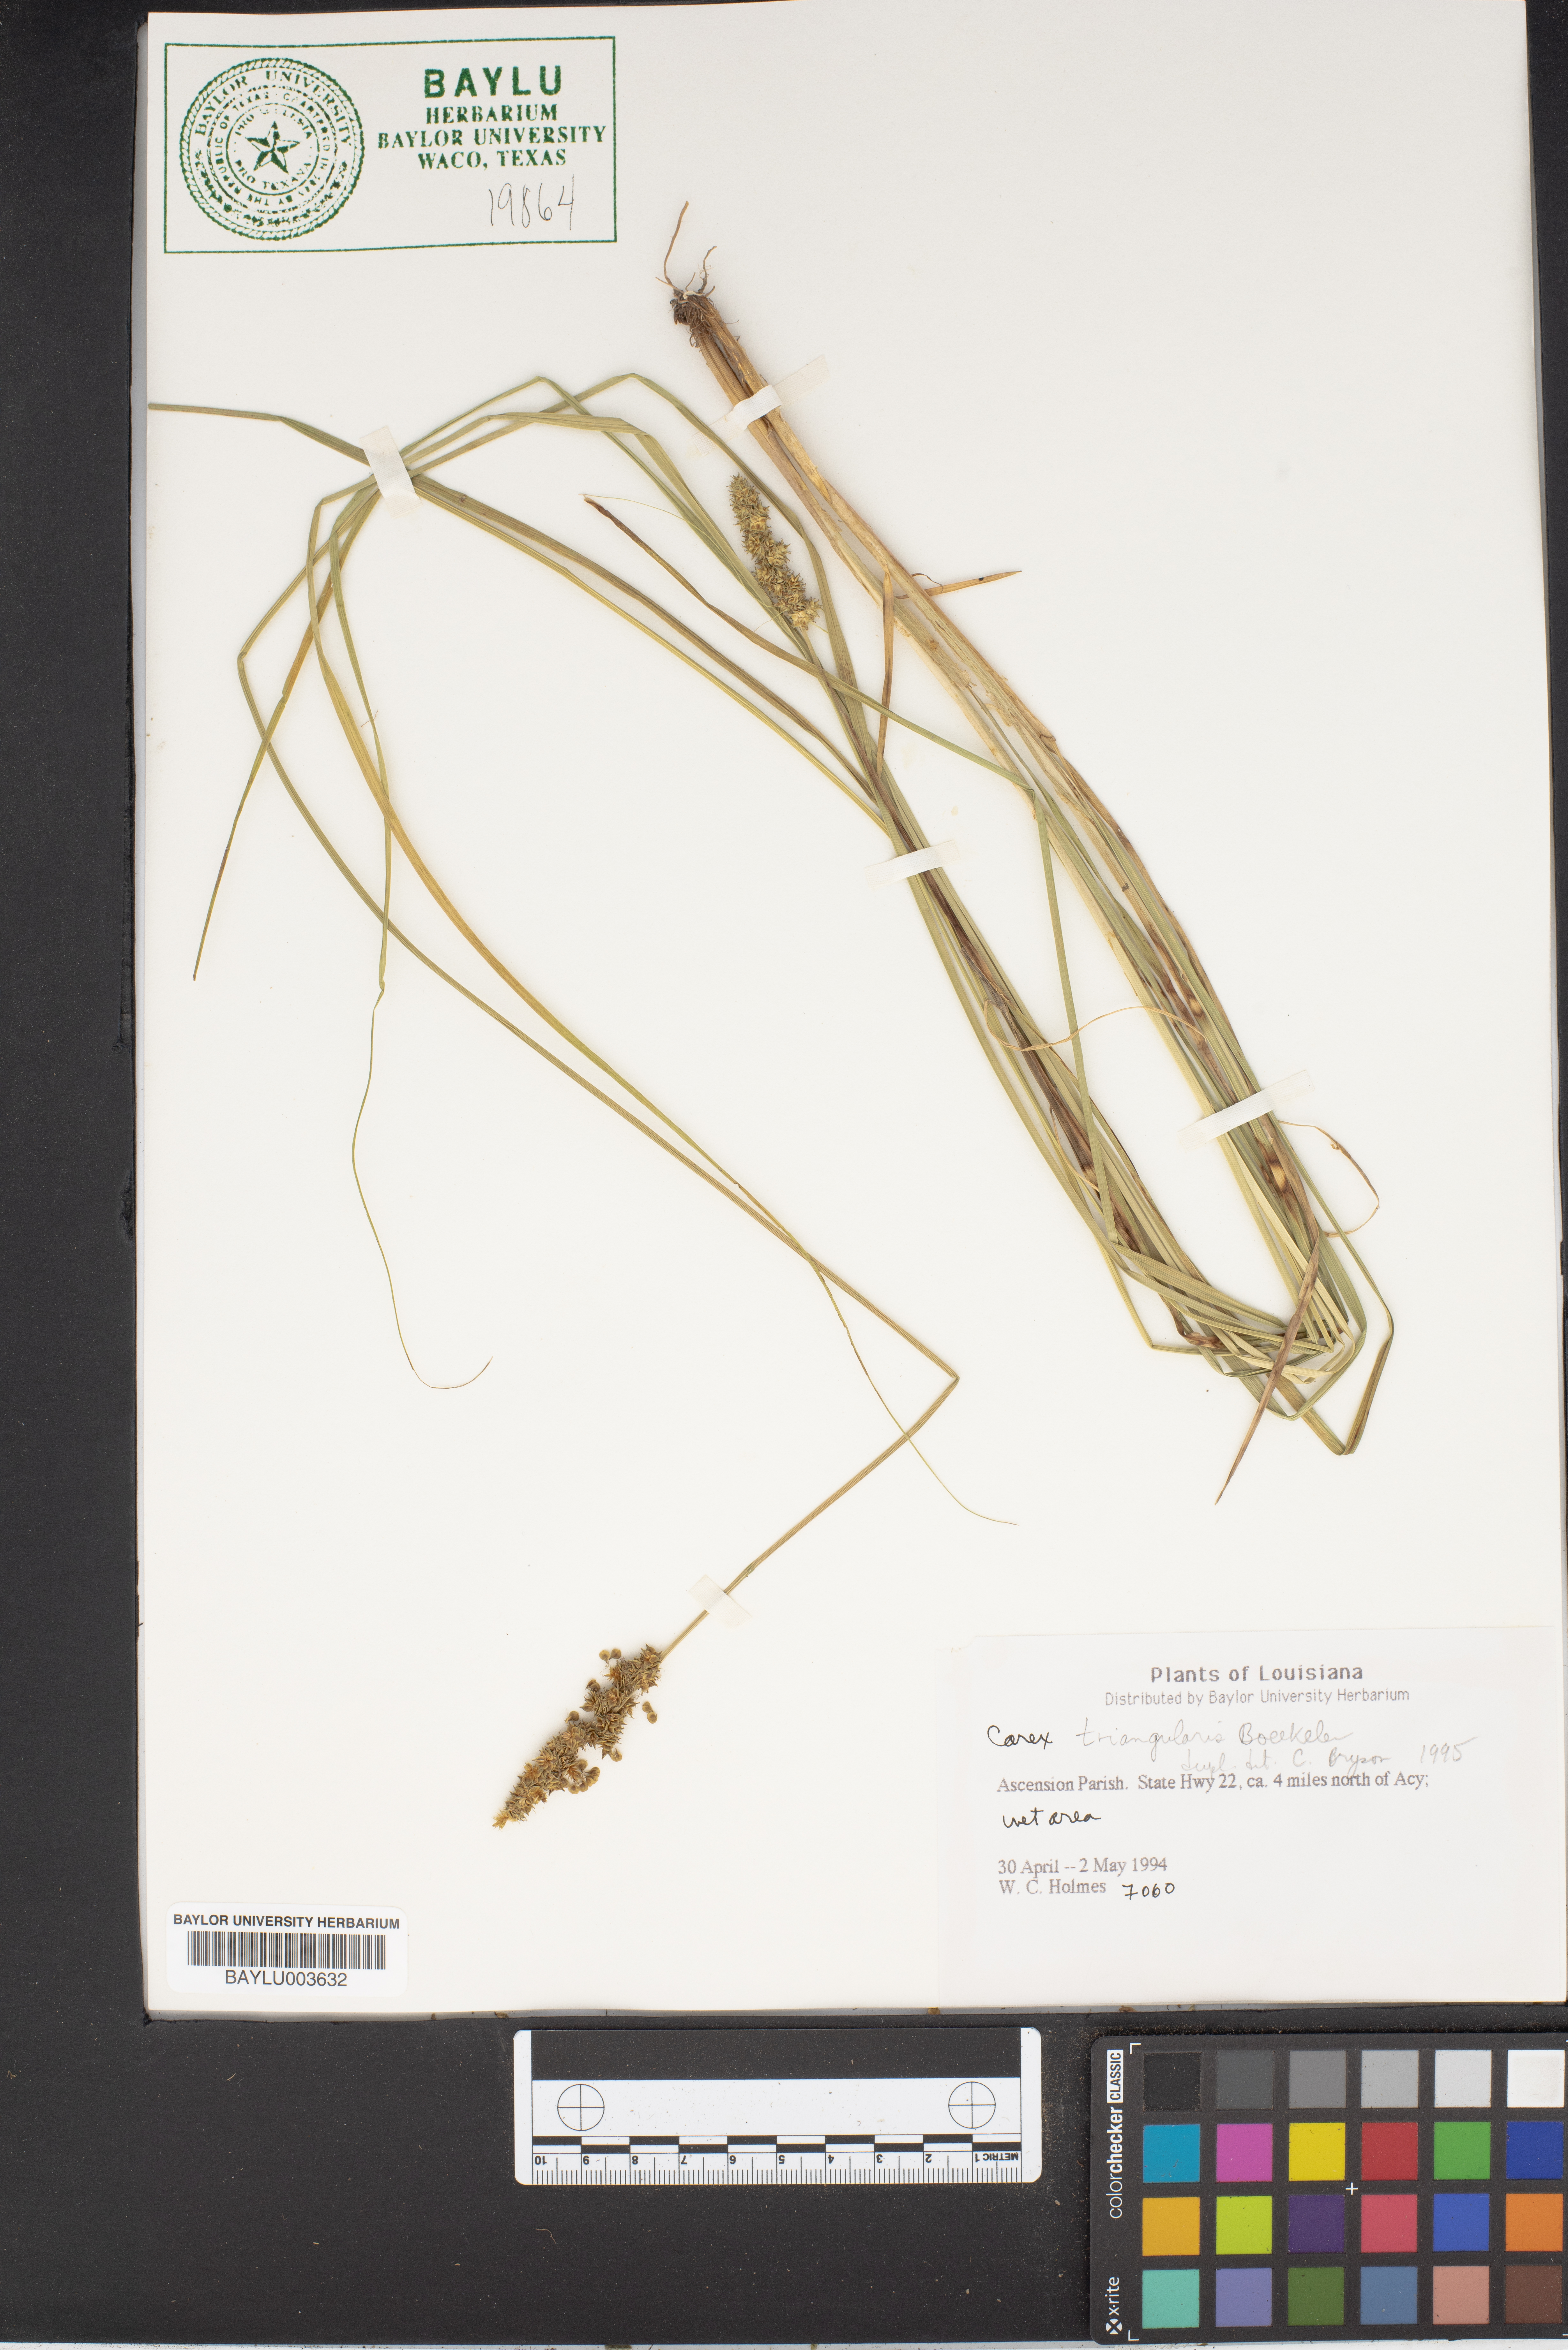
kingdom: Plantae
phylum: Tracheophyta
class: Liliopsida
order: Poales
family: Cyperaceae
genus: Carex
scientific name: Carex triangularis
